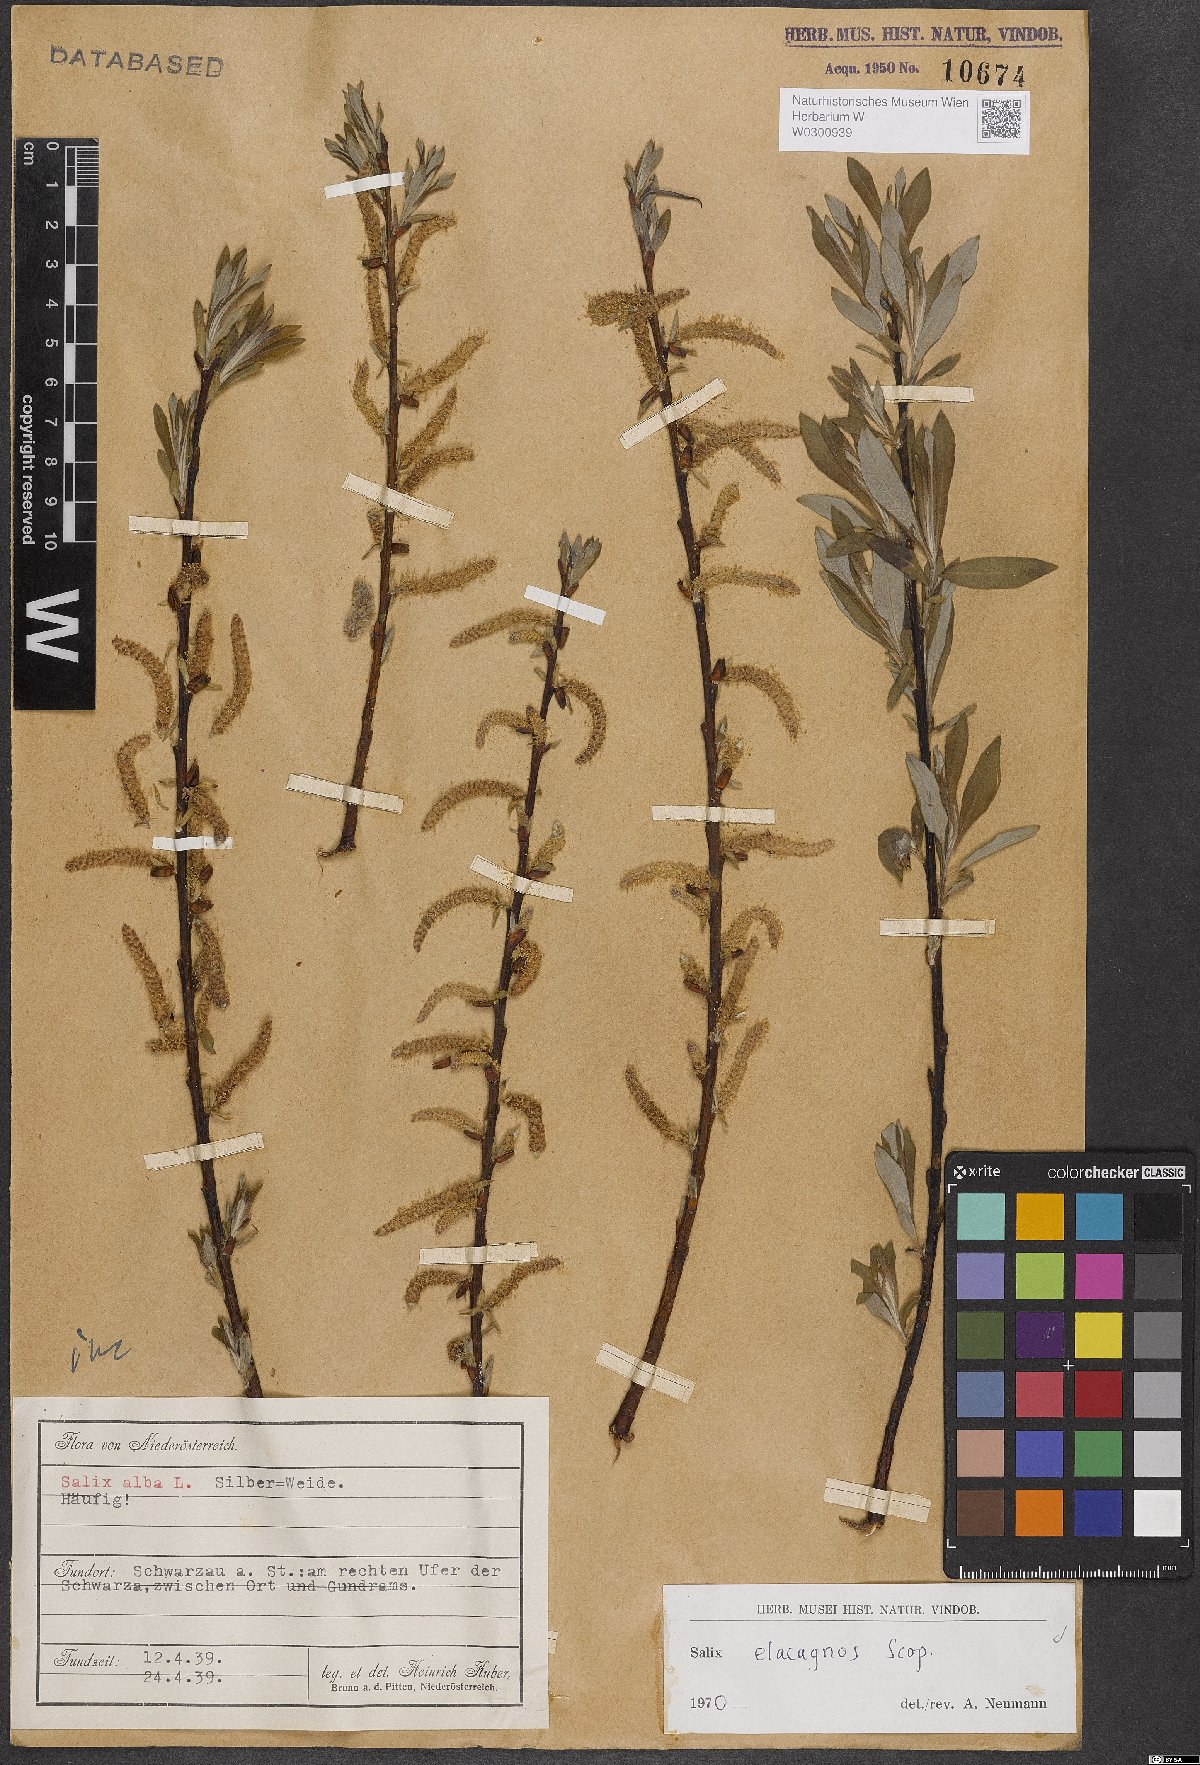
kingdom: Plantae
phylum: Tracheophyta
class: Magnoliopsida
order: Malpighiales
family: Salicaceae
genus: Salix
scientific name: Salix eleagnos
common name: Elaeagnus willow
